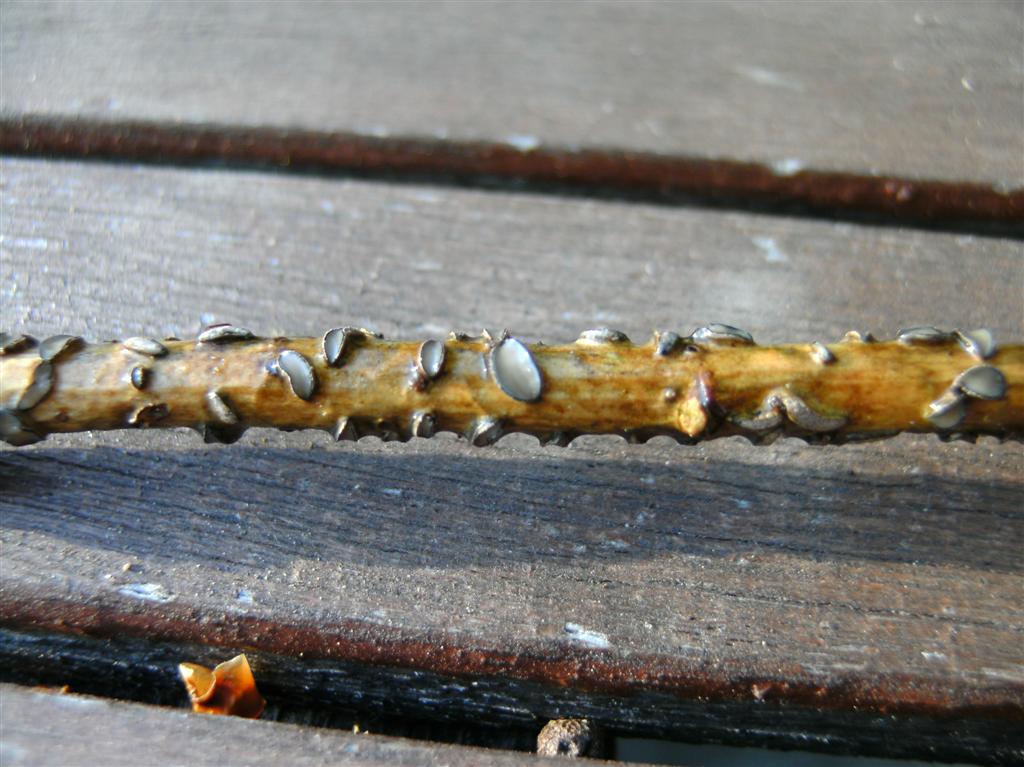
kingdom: Fungi
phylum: Ascomycota
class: Leotiomycetes
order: Rhytismatales
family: Rhytismataceae
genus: Colpoma
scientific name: Colpoma quercinum
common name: ege-sprækkeskive
